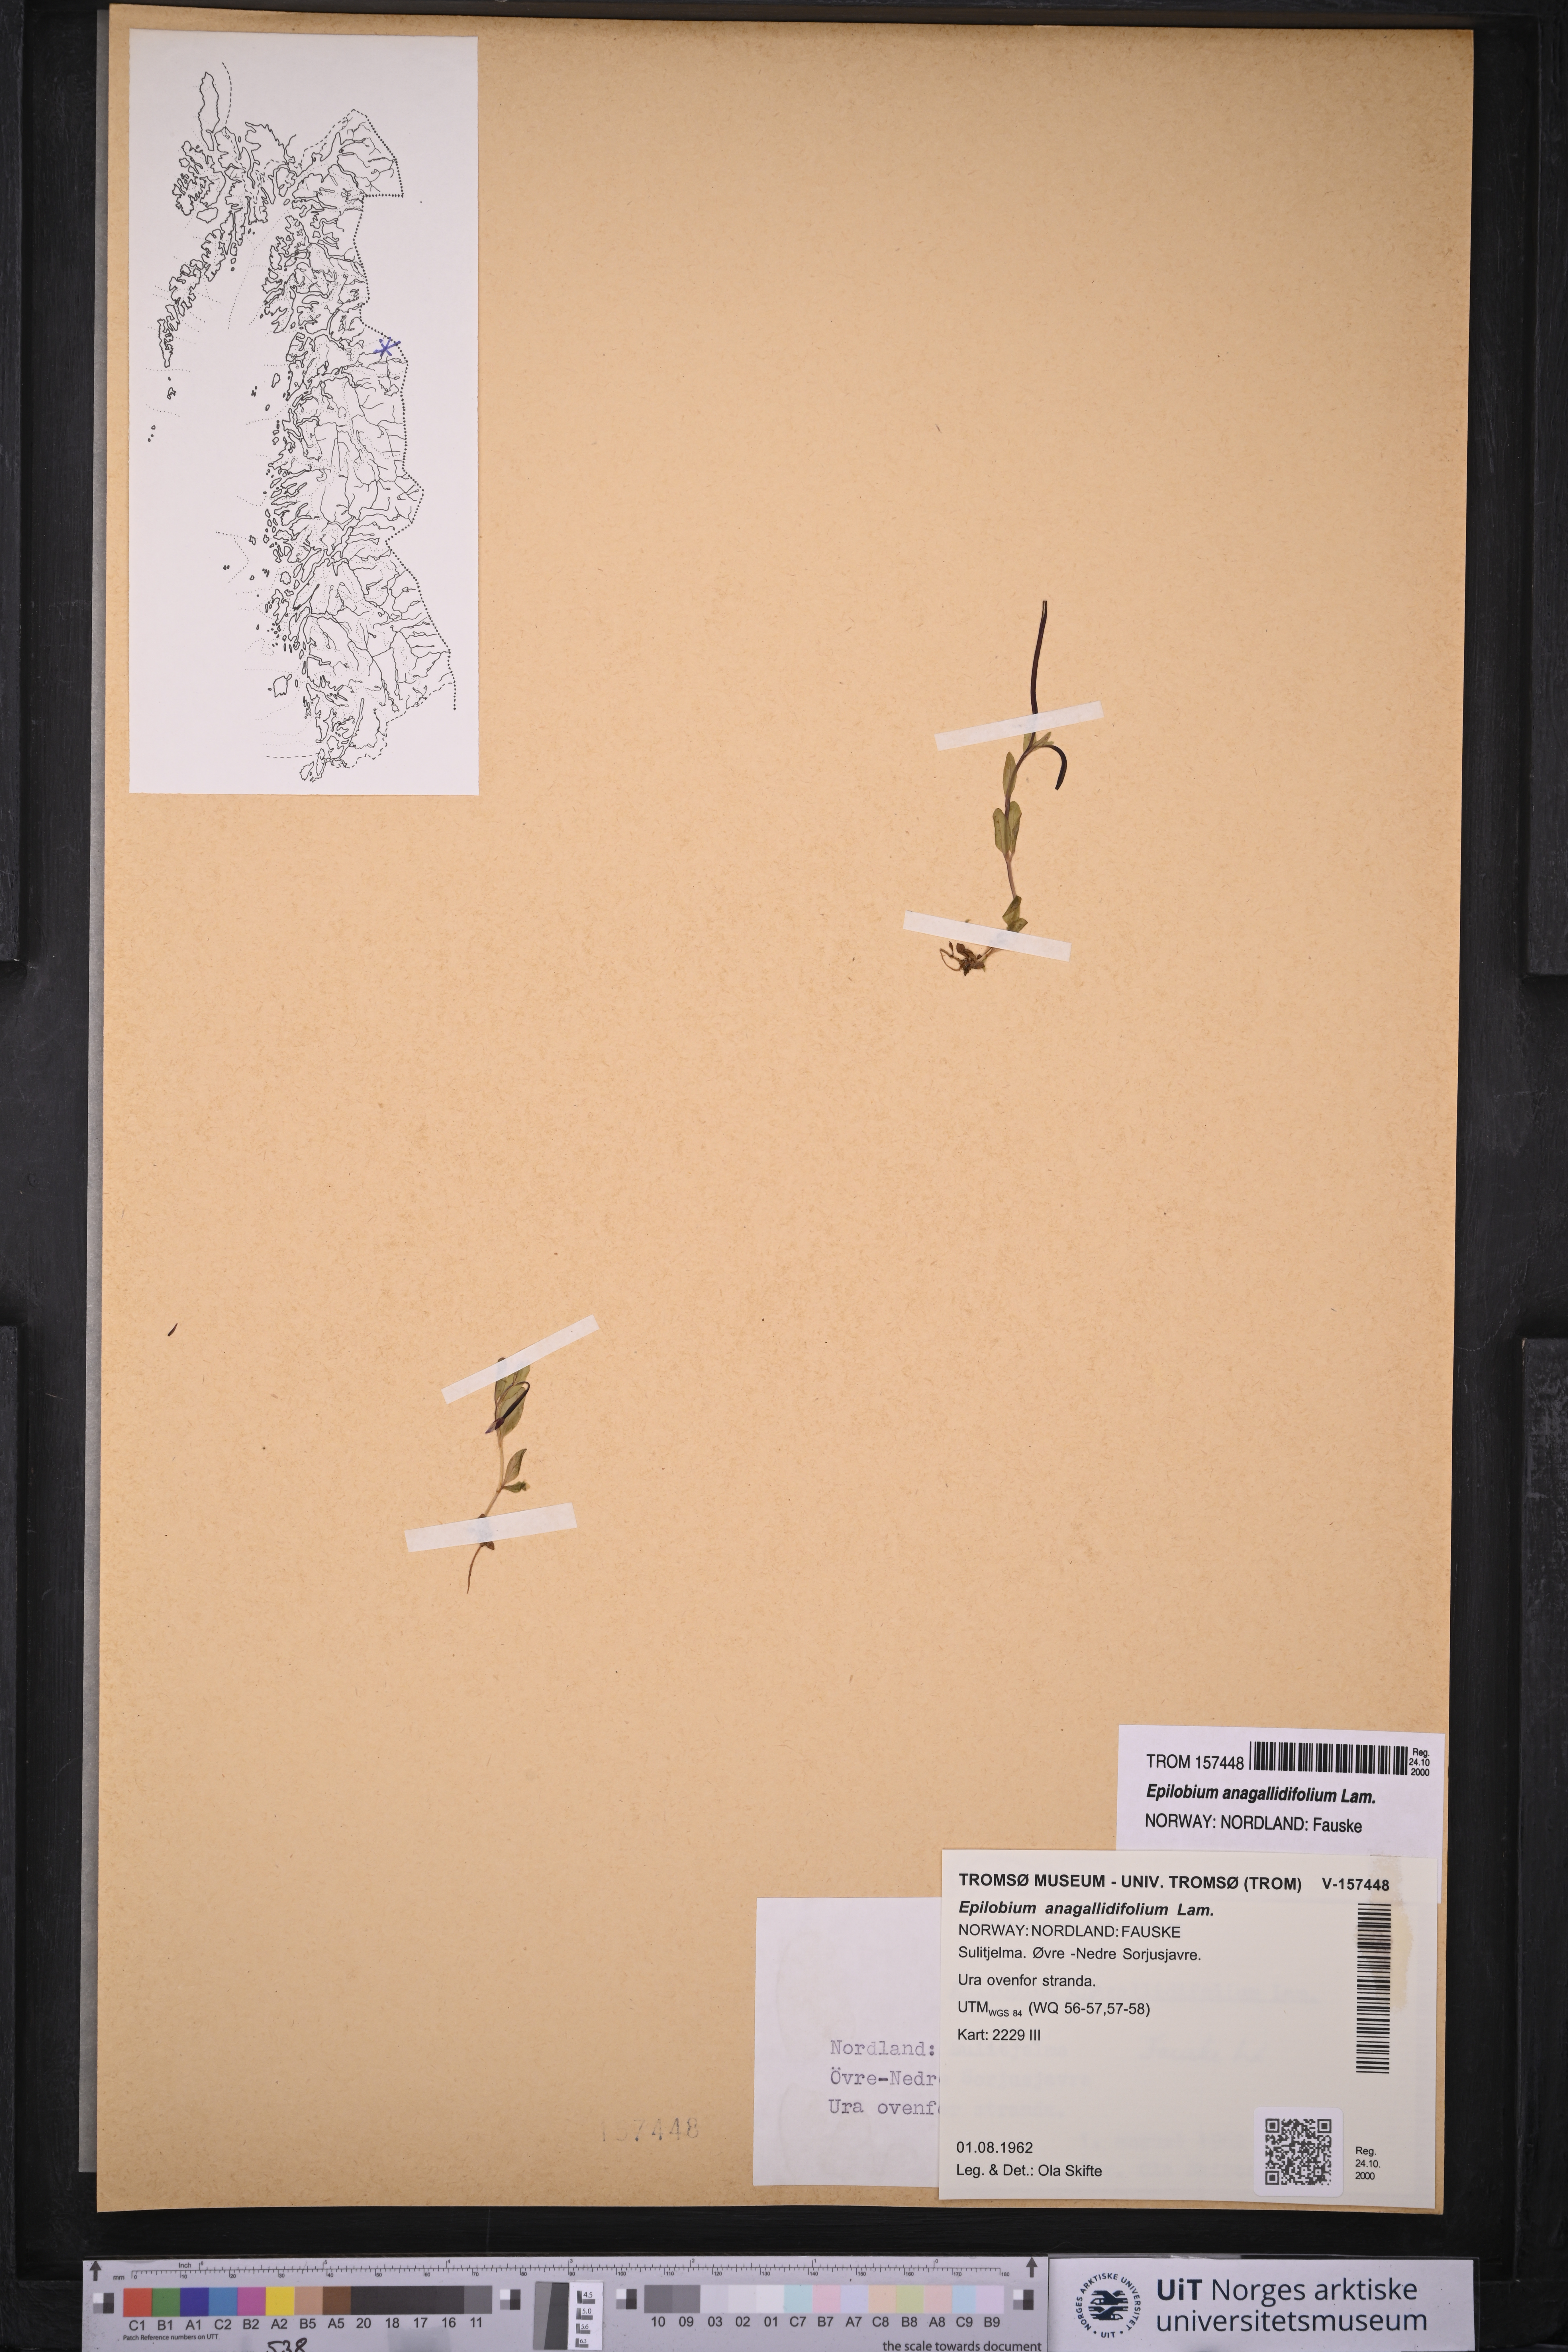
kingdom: Plantae
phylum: Tracheophyta
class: Magnoliopsida
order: Myrtales
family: Onagraceae
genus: Epilobium
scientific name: Epilobium anagallidifolium
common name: Alpine willowherb
